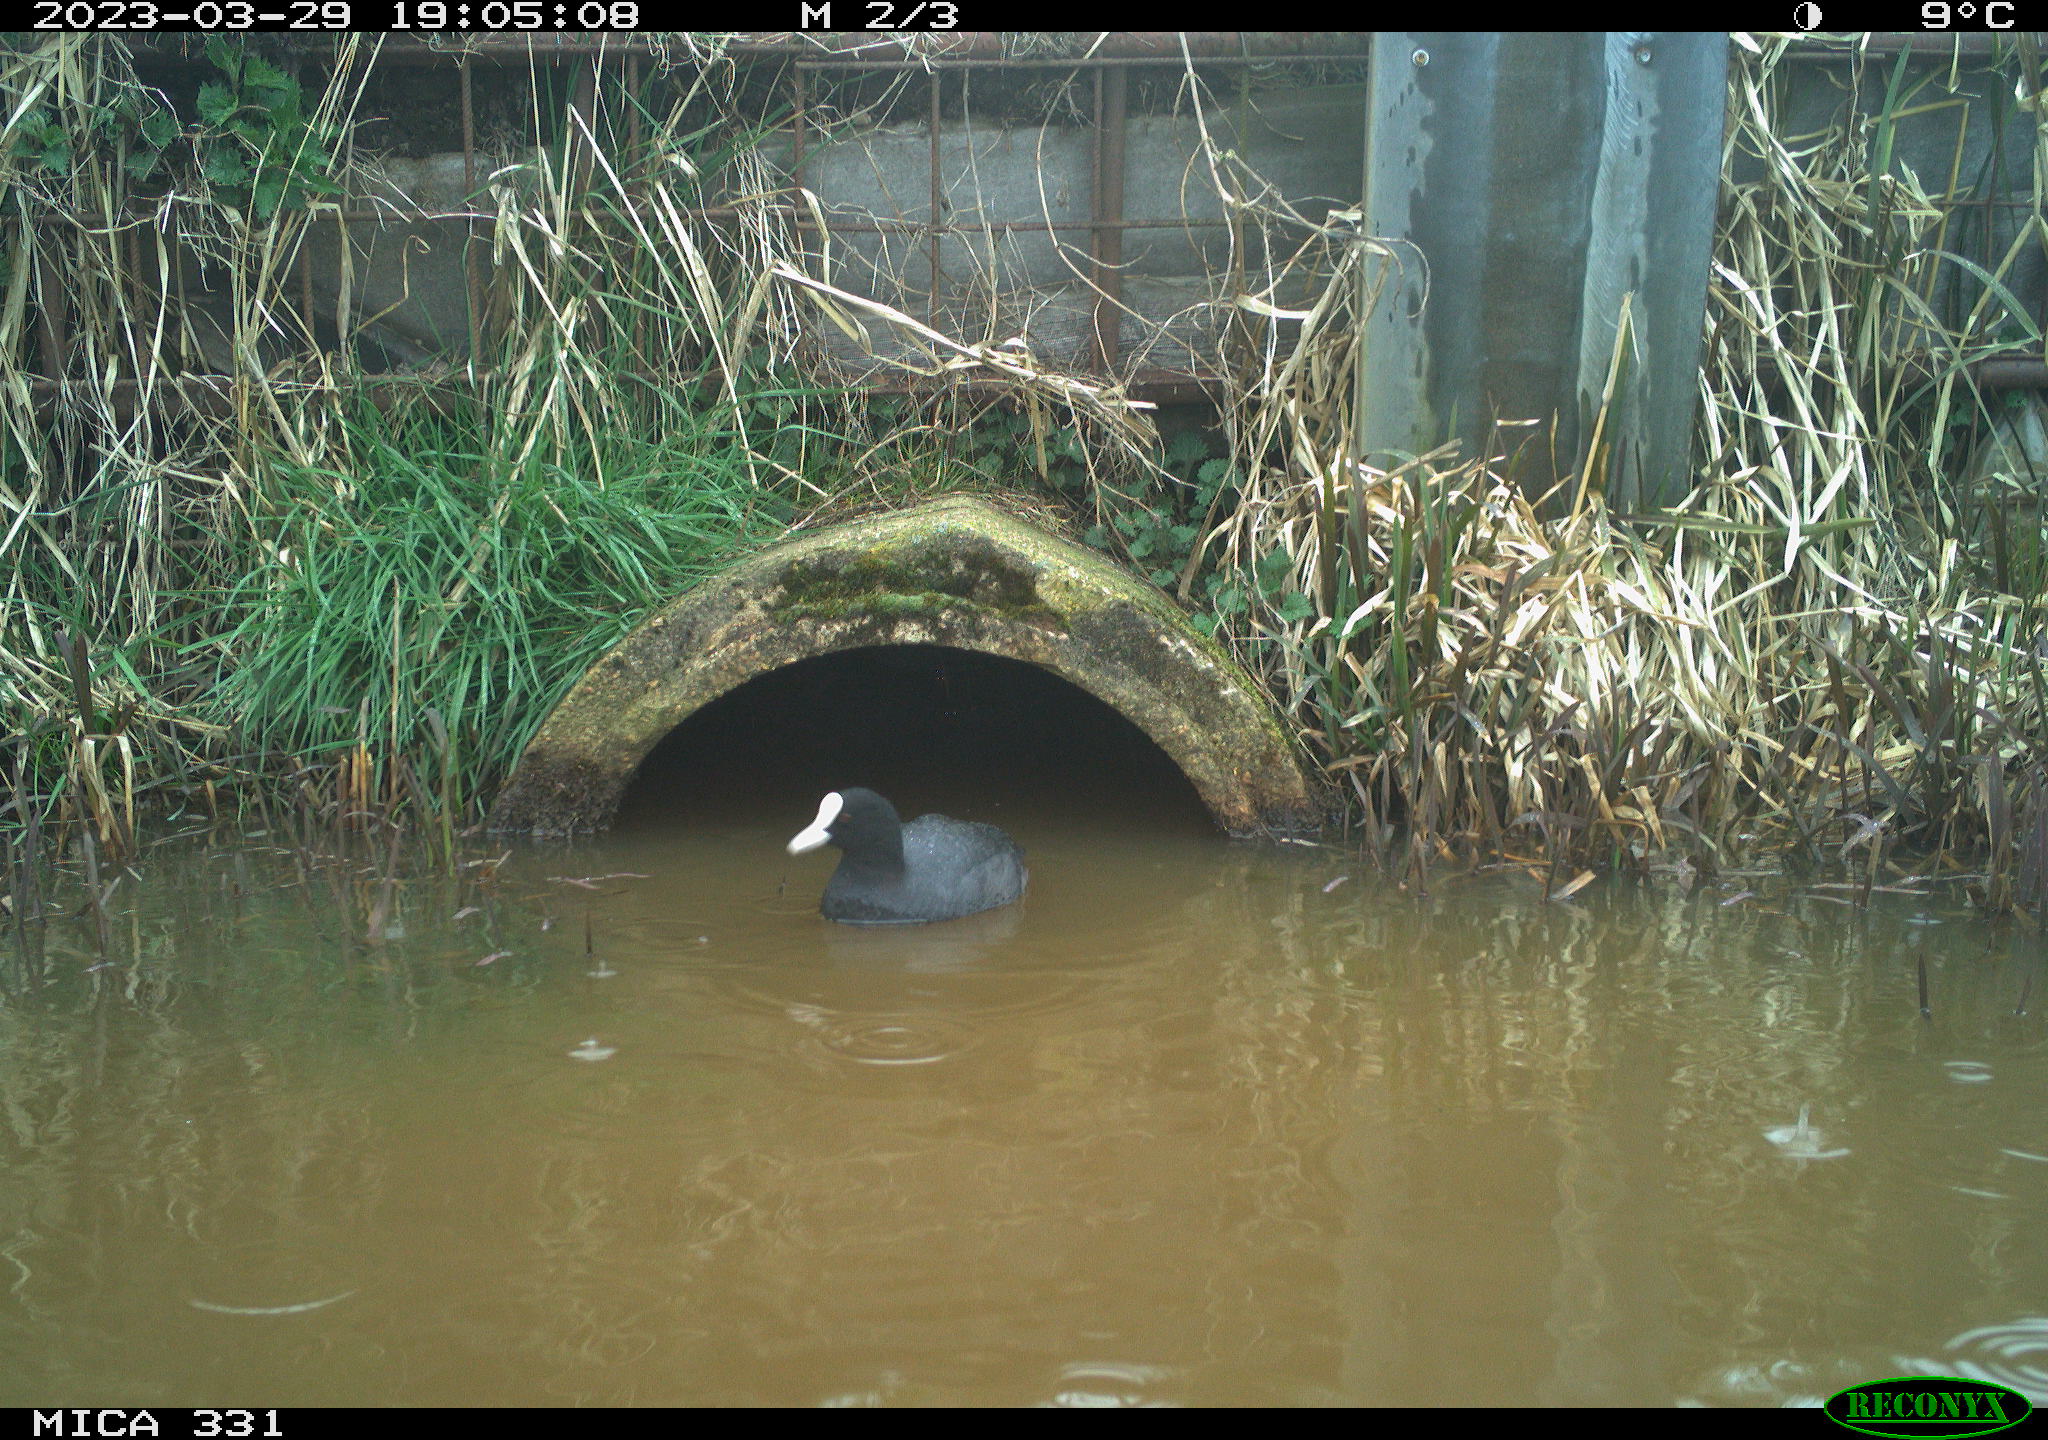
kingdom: Animalia
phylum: Chordata
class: Aves
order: Gruiformes
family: Rallidae
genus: Gallinula
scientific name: Gallinula chloropus
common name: Common moorhen
